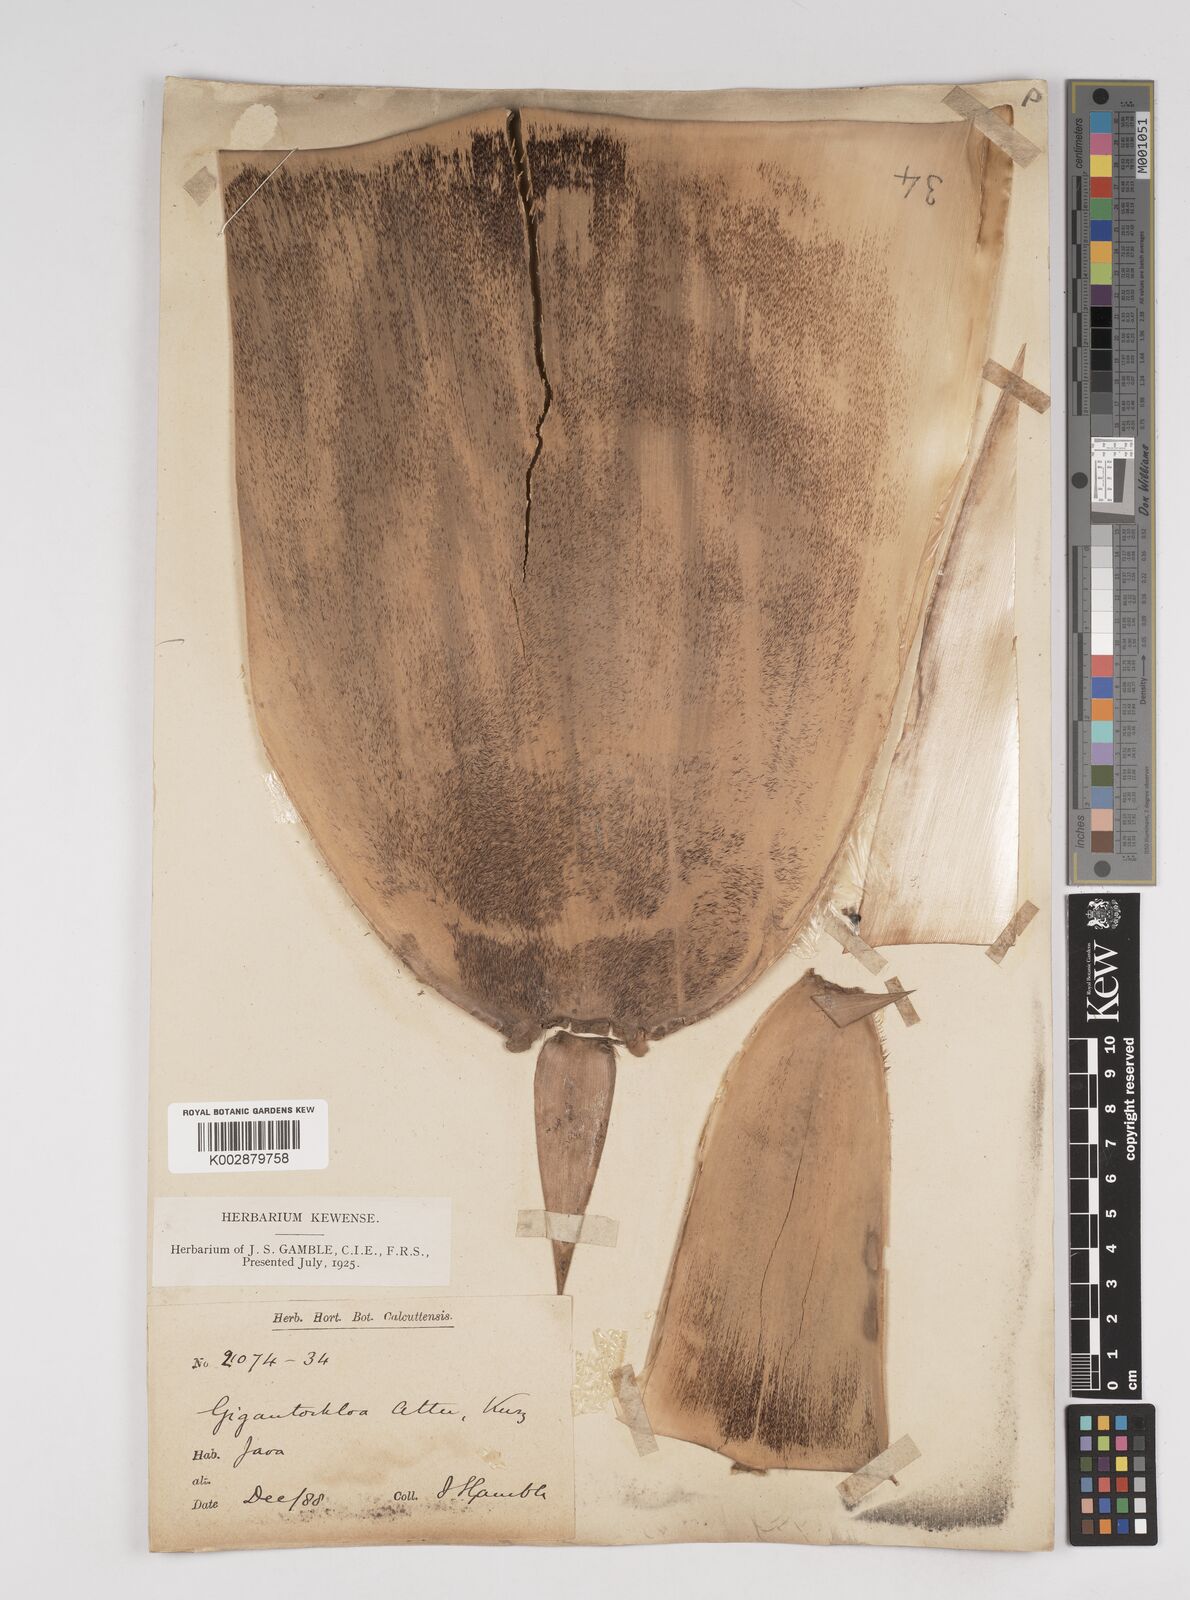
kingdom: Plantae
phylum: Tracheophyta
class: Liliopsida
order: Poales
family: Poaceae
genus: Gigantochloa
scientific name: Gigantochloa atter
